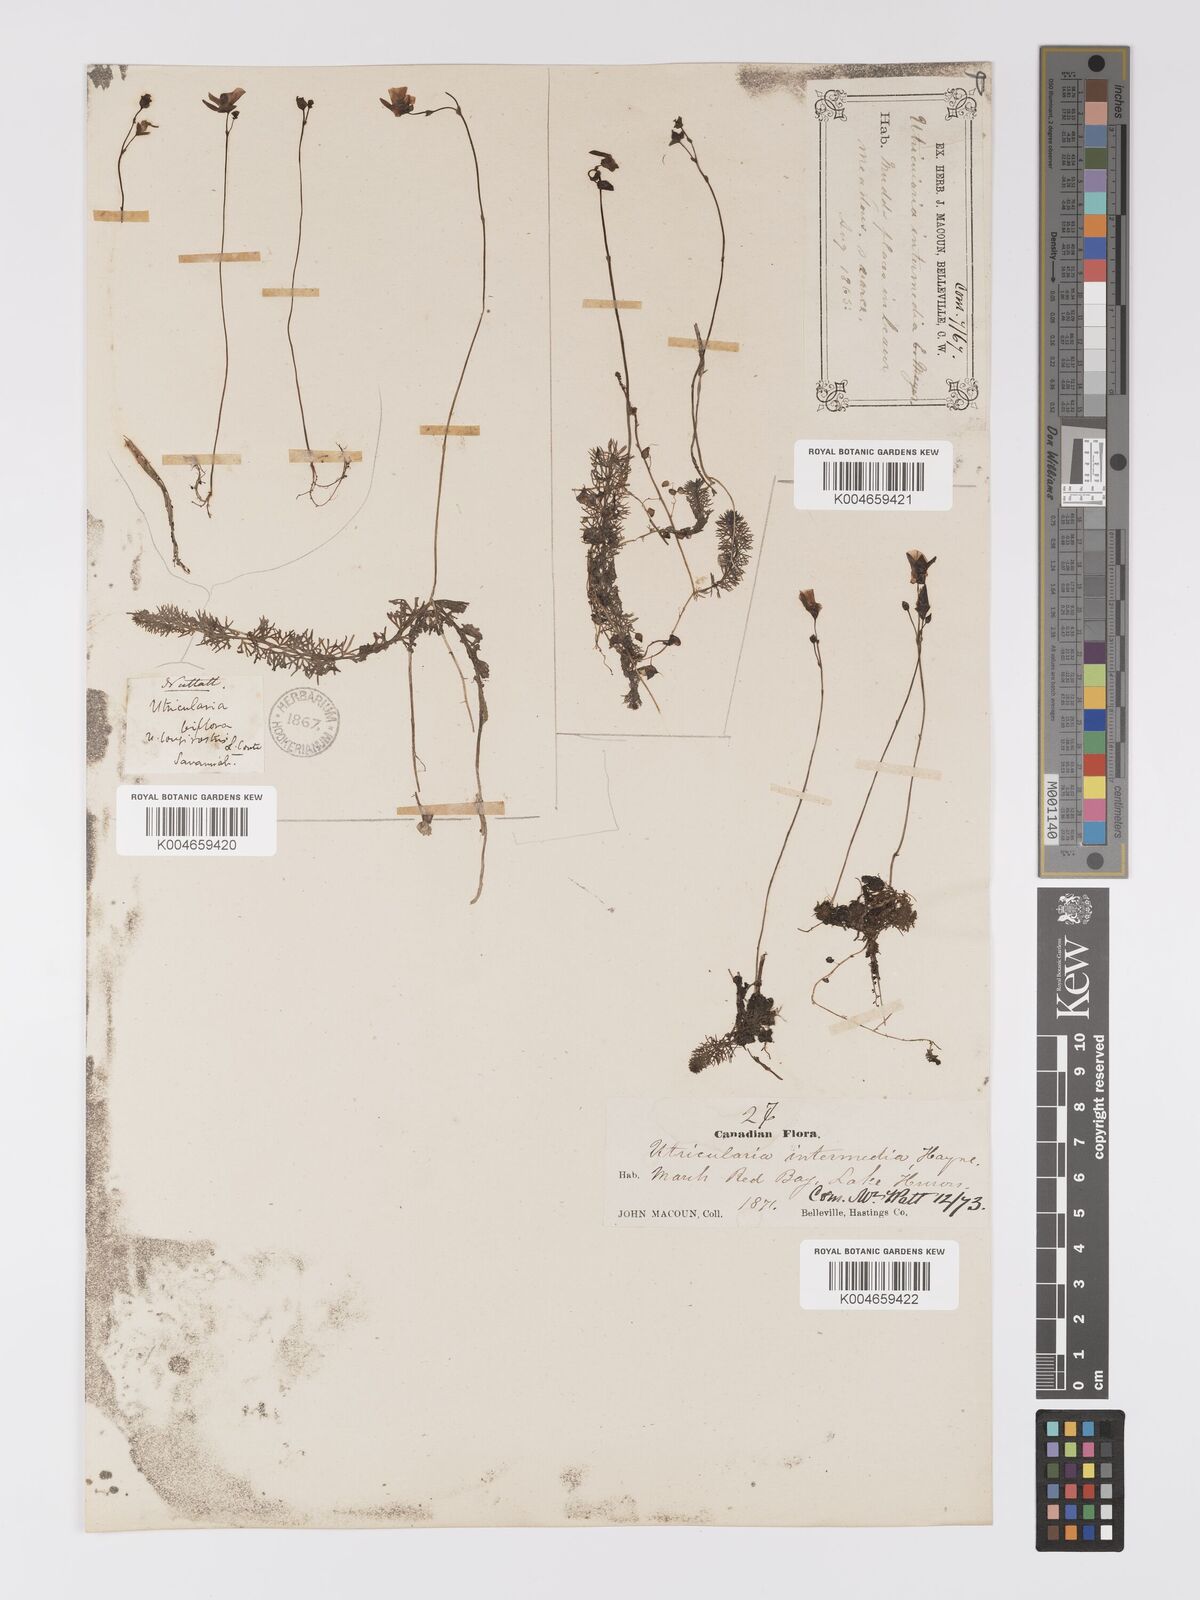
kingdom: Plantae
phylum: Tracheophyta
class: Magnoliopsida
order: Lamiales
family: Lentibulariaceae
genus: Utricularia
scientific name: Utricularia intermedia
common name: Intermediate bladderwort
